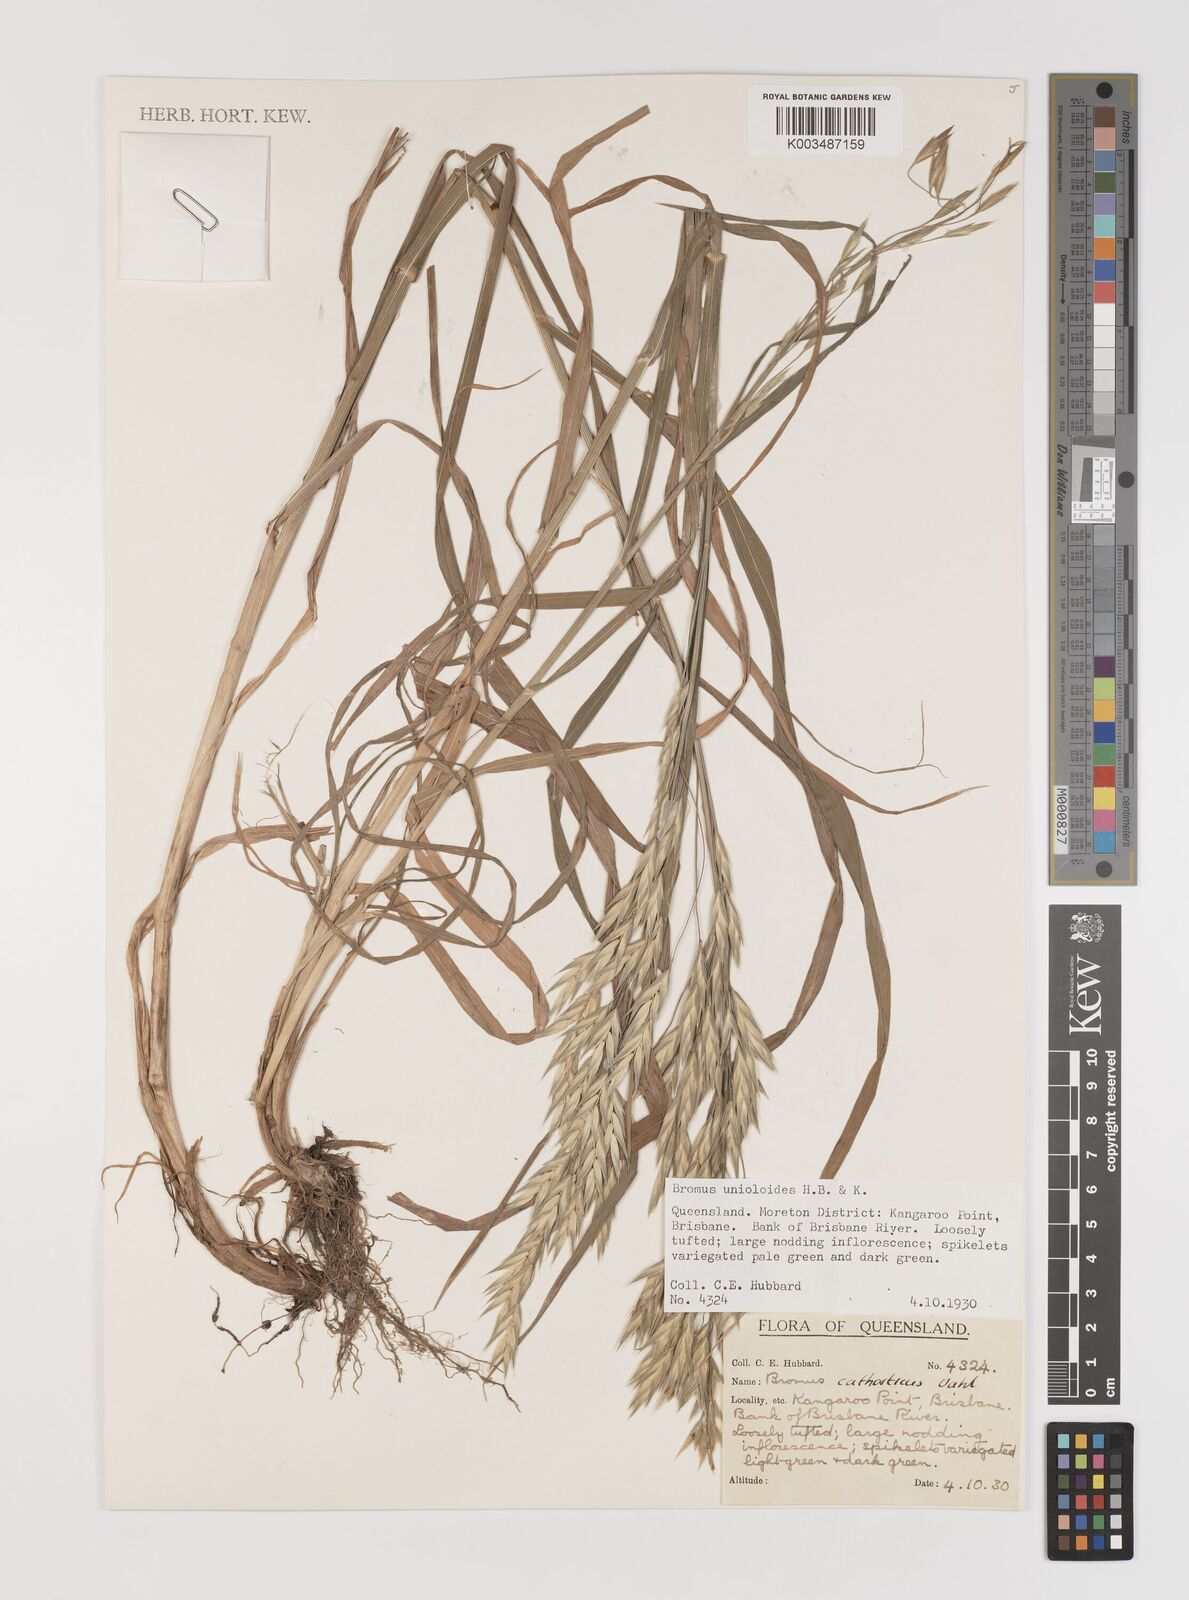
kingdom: Plantae
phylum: Tracheophyta
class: Liliopsida
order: Poales
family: Poaceae
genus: Bromus
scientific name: Bromus catharticus
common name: Rescuegrass
